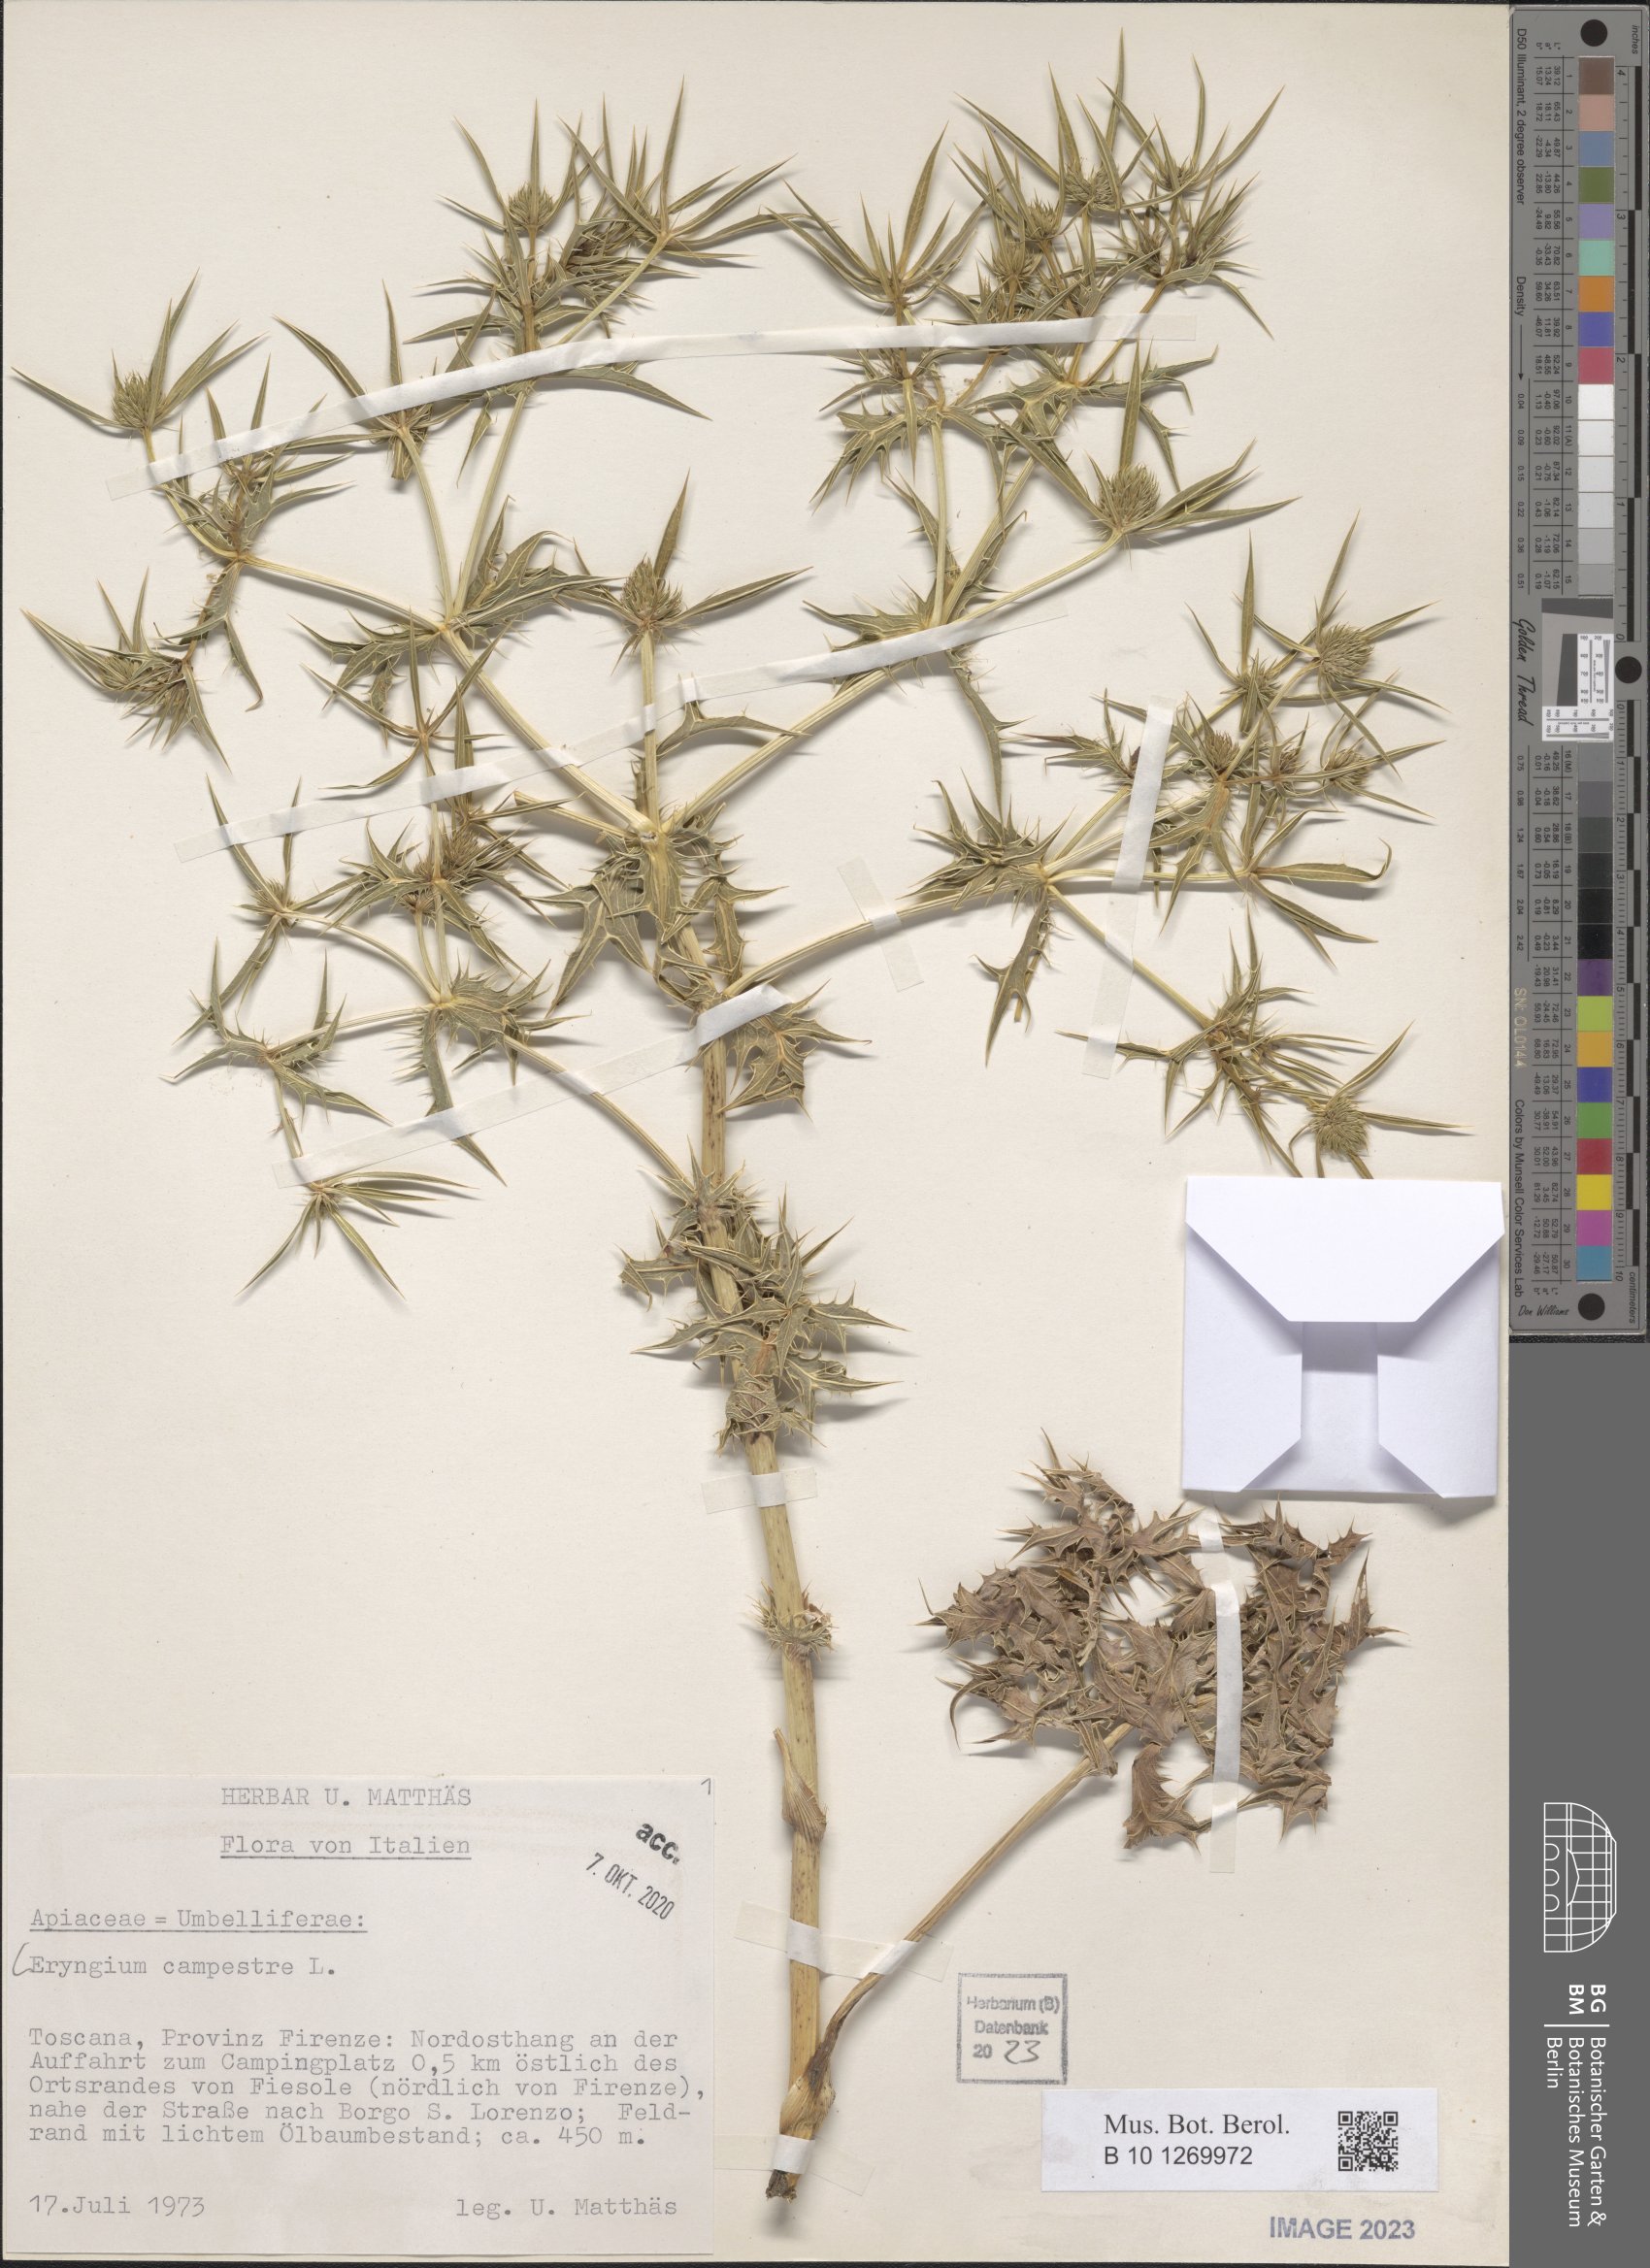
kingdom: Plantae
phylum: Tracheophyta
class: Magnoliopsida
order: Apiales
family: Apiaceae
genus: Eryngium
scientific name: Eryngium campestre
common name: Field eryngo
